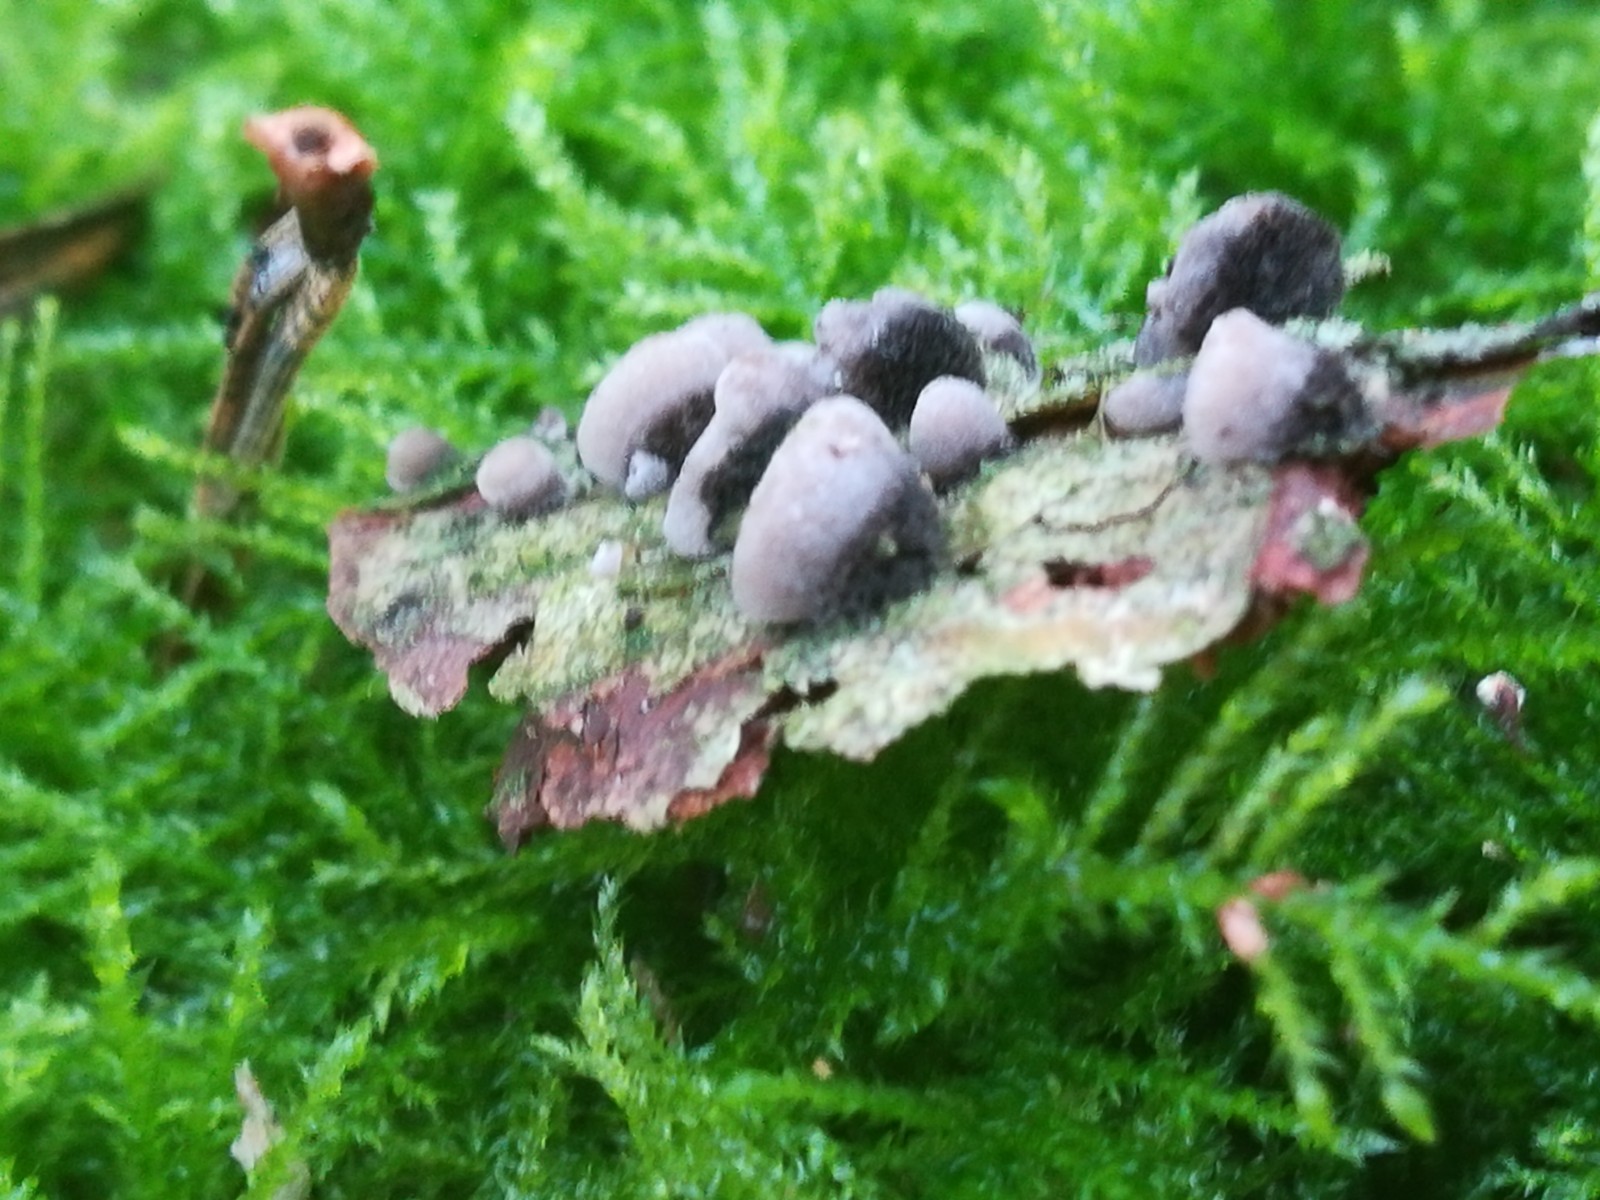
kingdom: Fungi
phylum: Basidiomycota
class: Agaricomycetes
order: Agaricales
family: Pleurotaceae
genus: Resupinatus
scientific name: Resupinatus trichotis
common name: mørkfiltet barkhat
